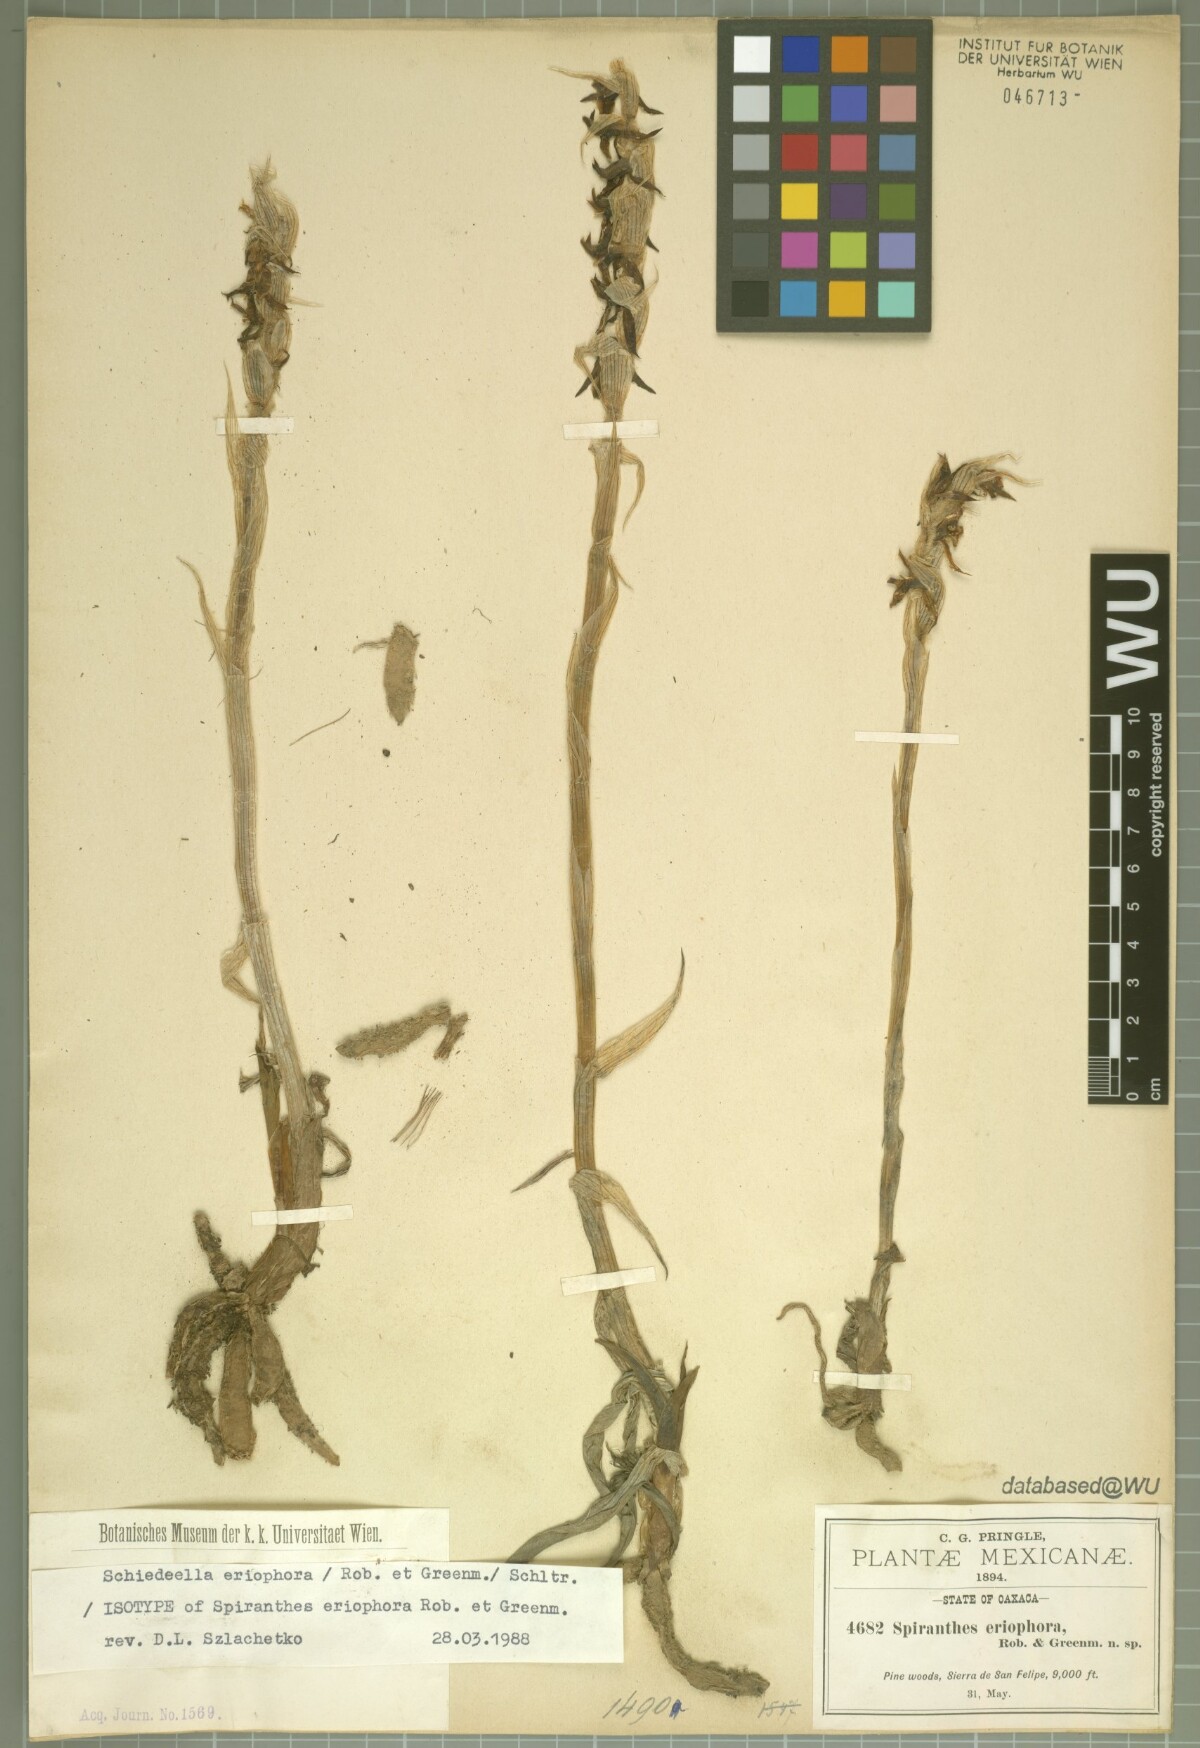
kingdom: Plantae
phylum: Tracheophyta
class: Liliopsida
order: Asparagales
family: Orchidaceae
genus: Deiregyne
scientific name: Deiregyne eriophora
